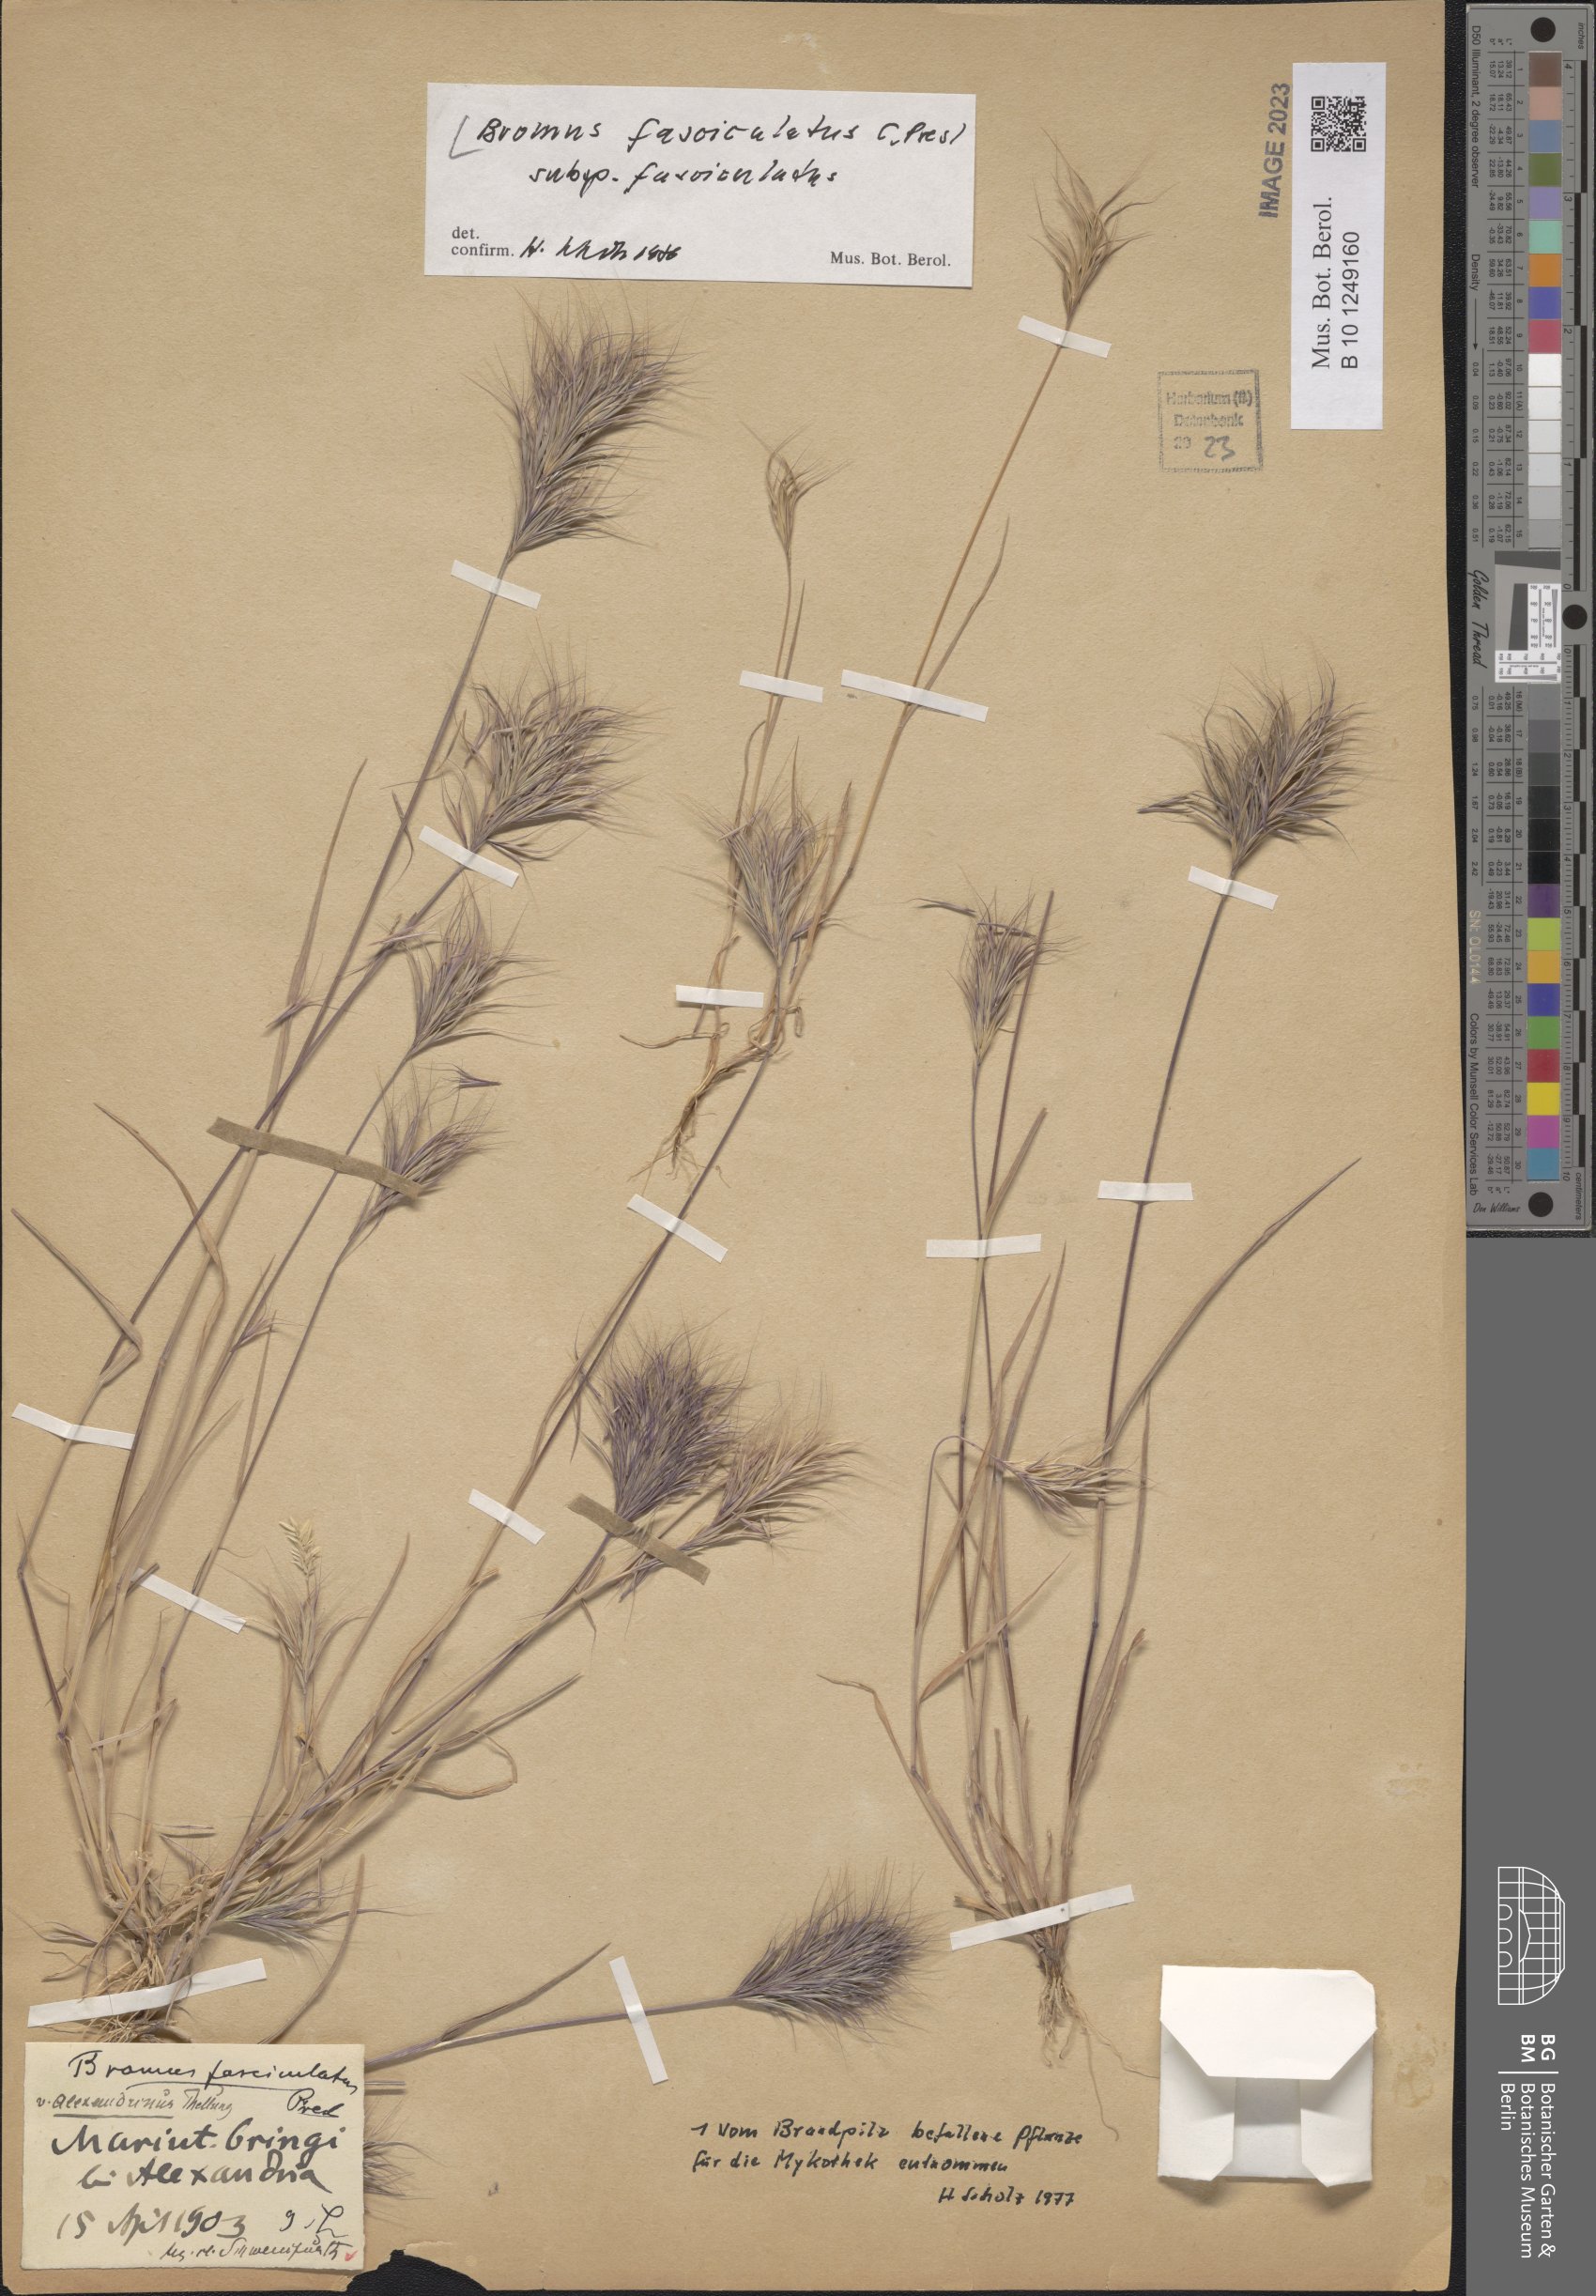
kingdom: Plantae
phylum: Tracheophyta
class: Liliopsida
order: Poales
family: Poaceae
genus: Bromus
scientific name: Bromus fasciculatus
